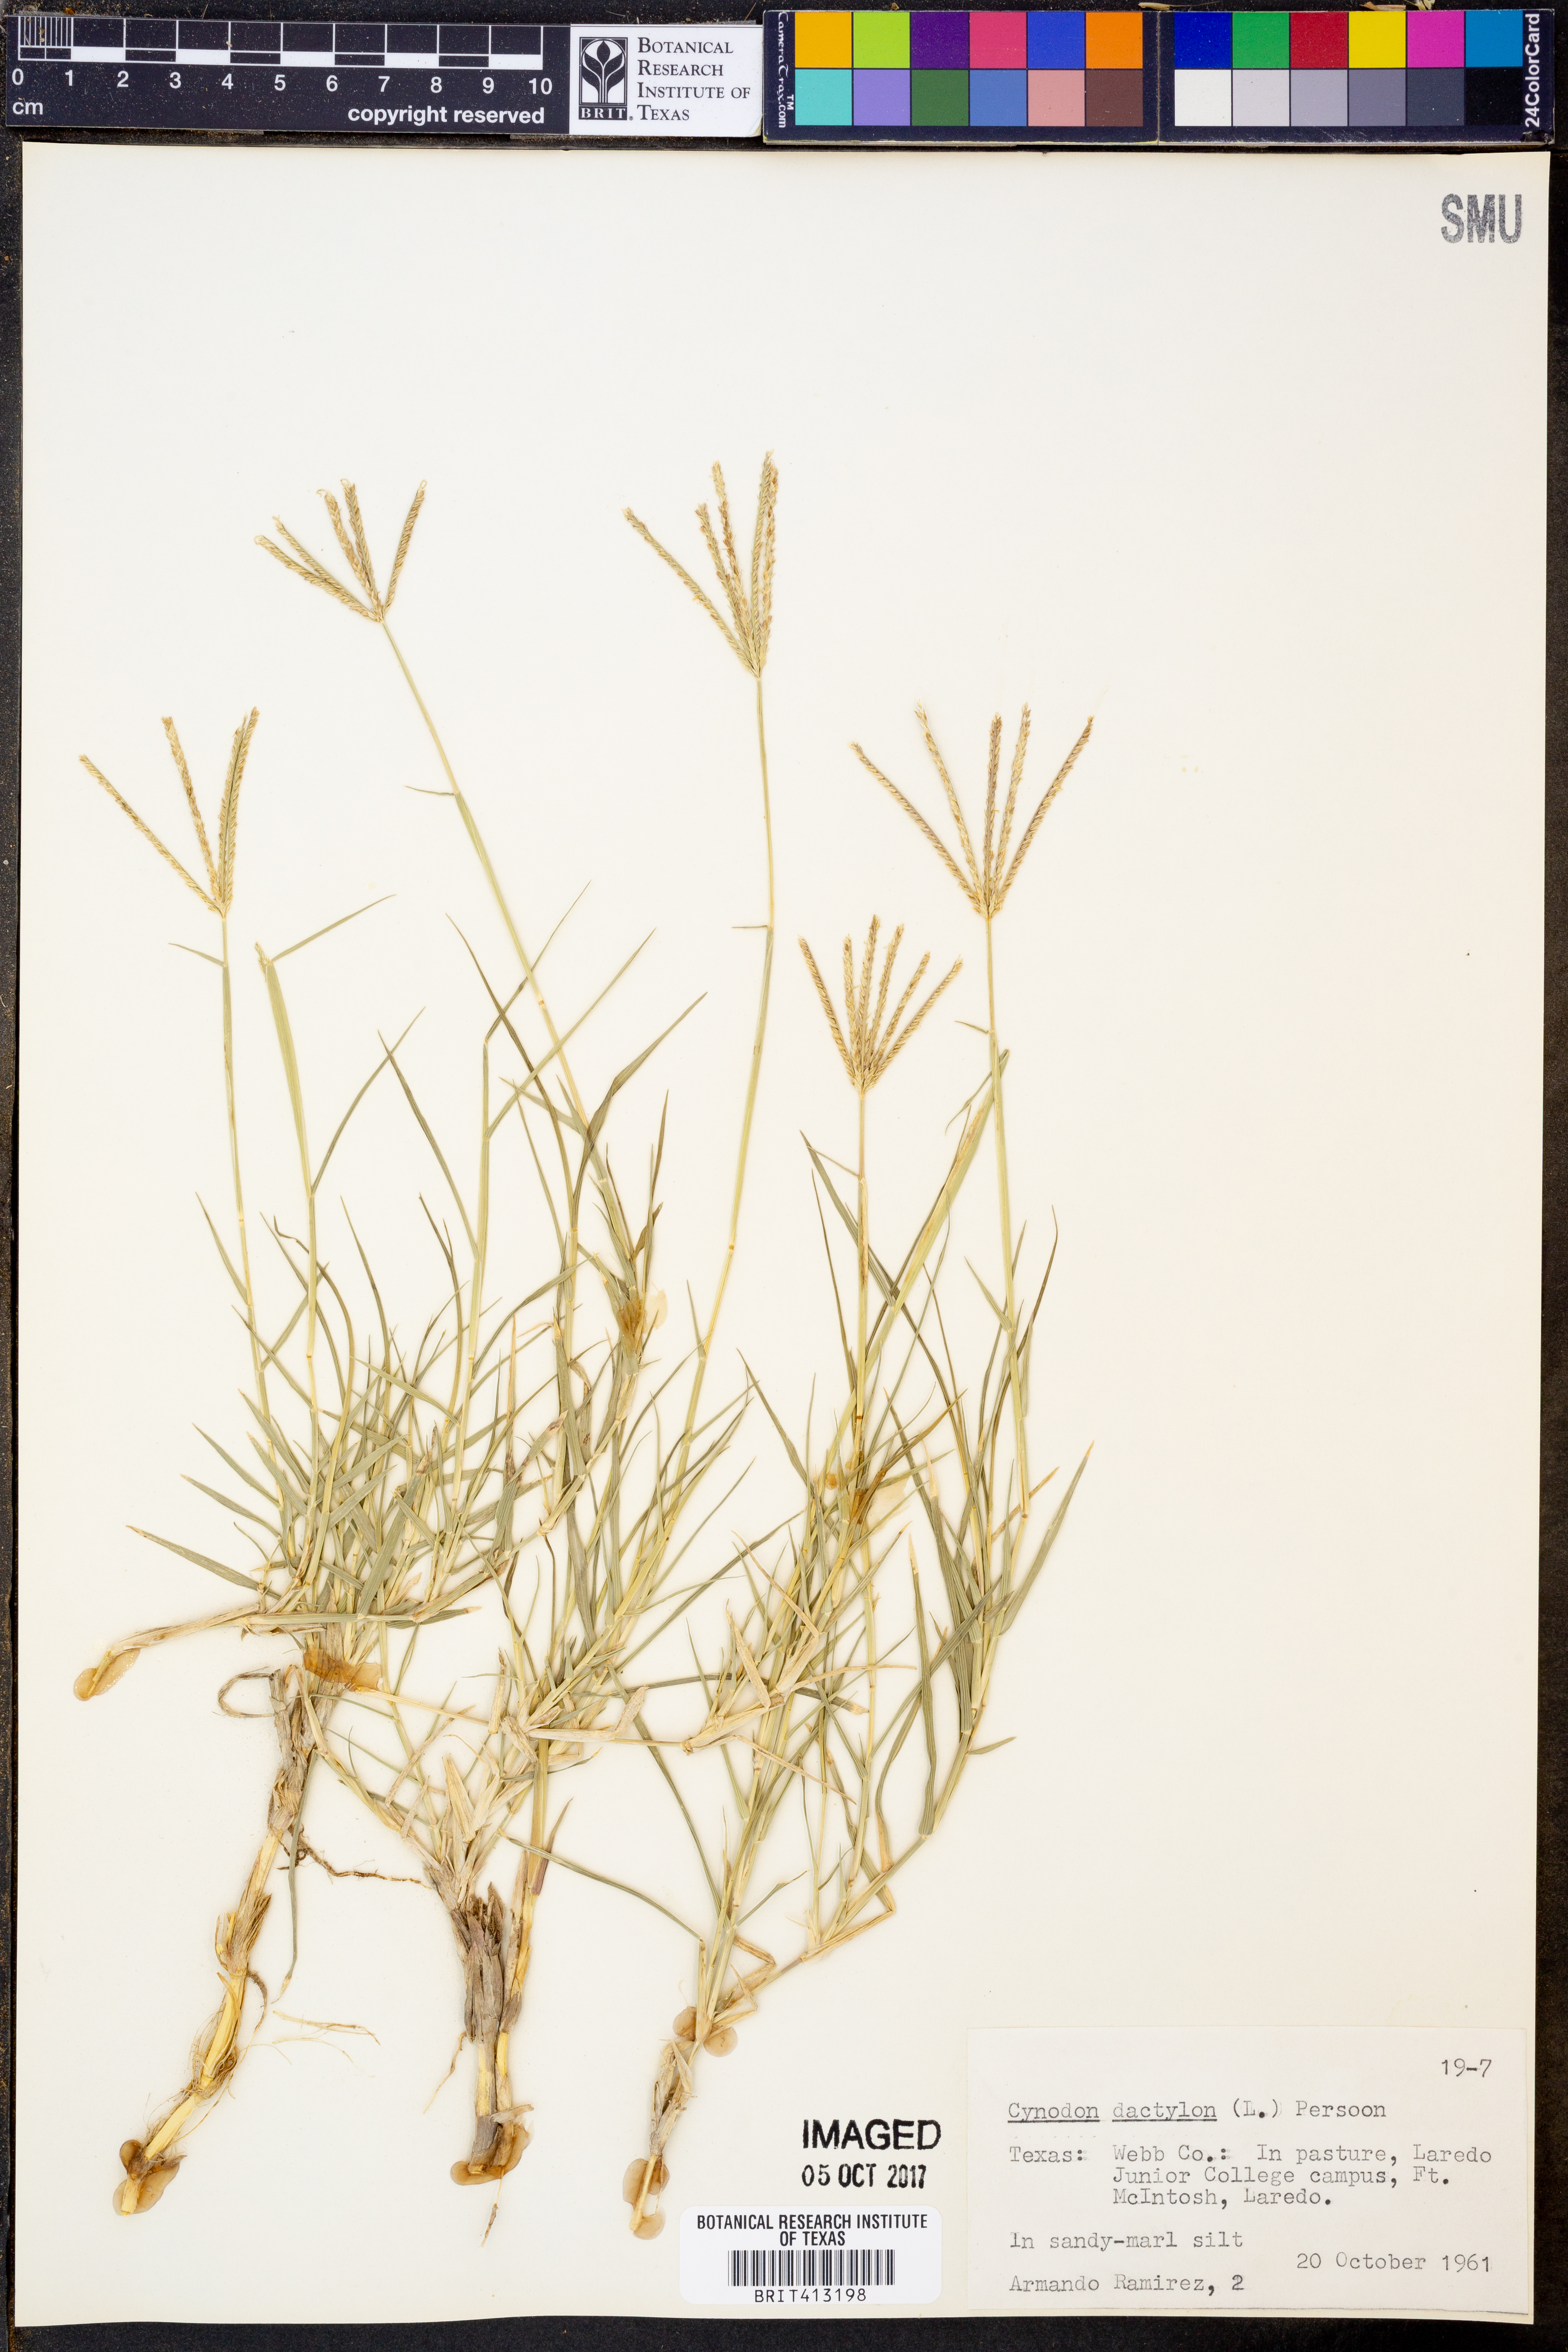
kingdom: Plantae
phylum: Tracheophyta
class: Liliopsida
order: Poales
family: Poaceae
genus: Cynodon
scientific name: Cynodon dactylon
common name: Bermuda grass
